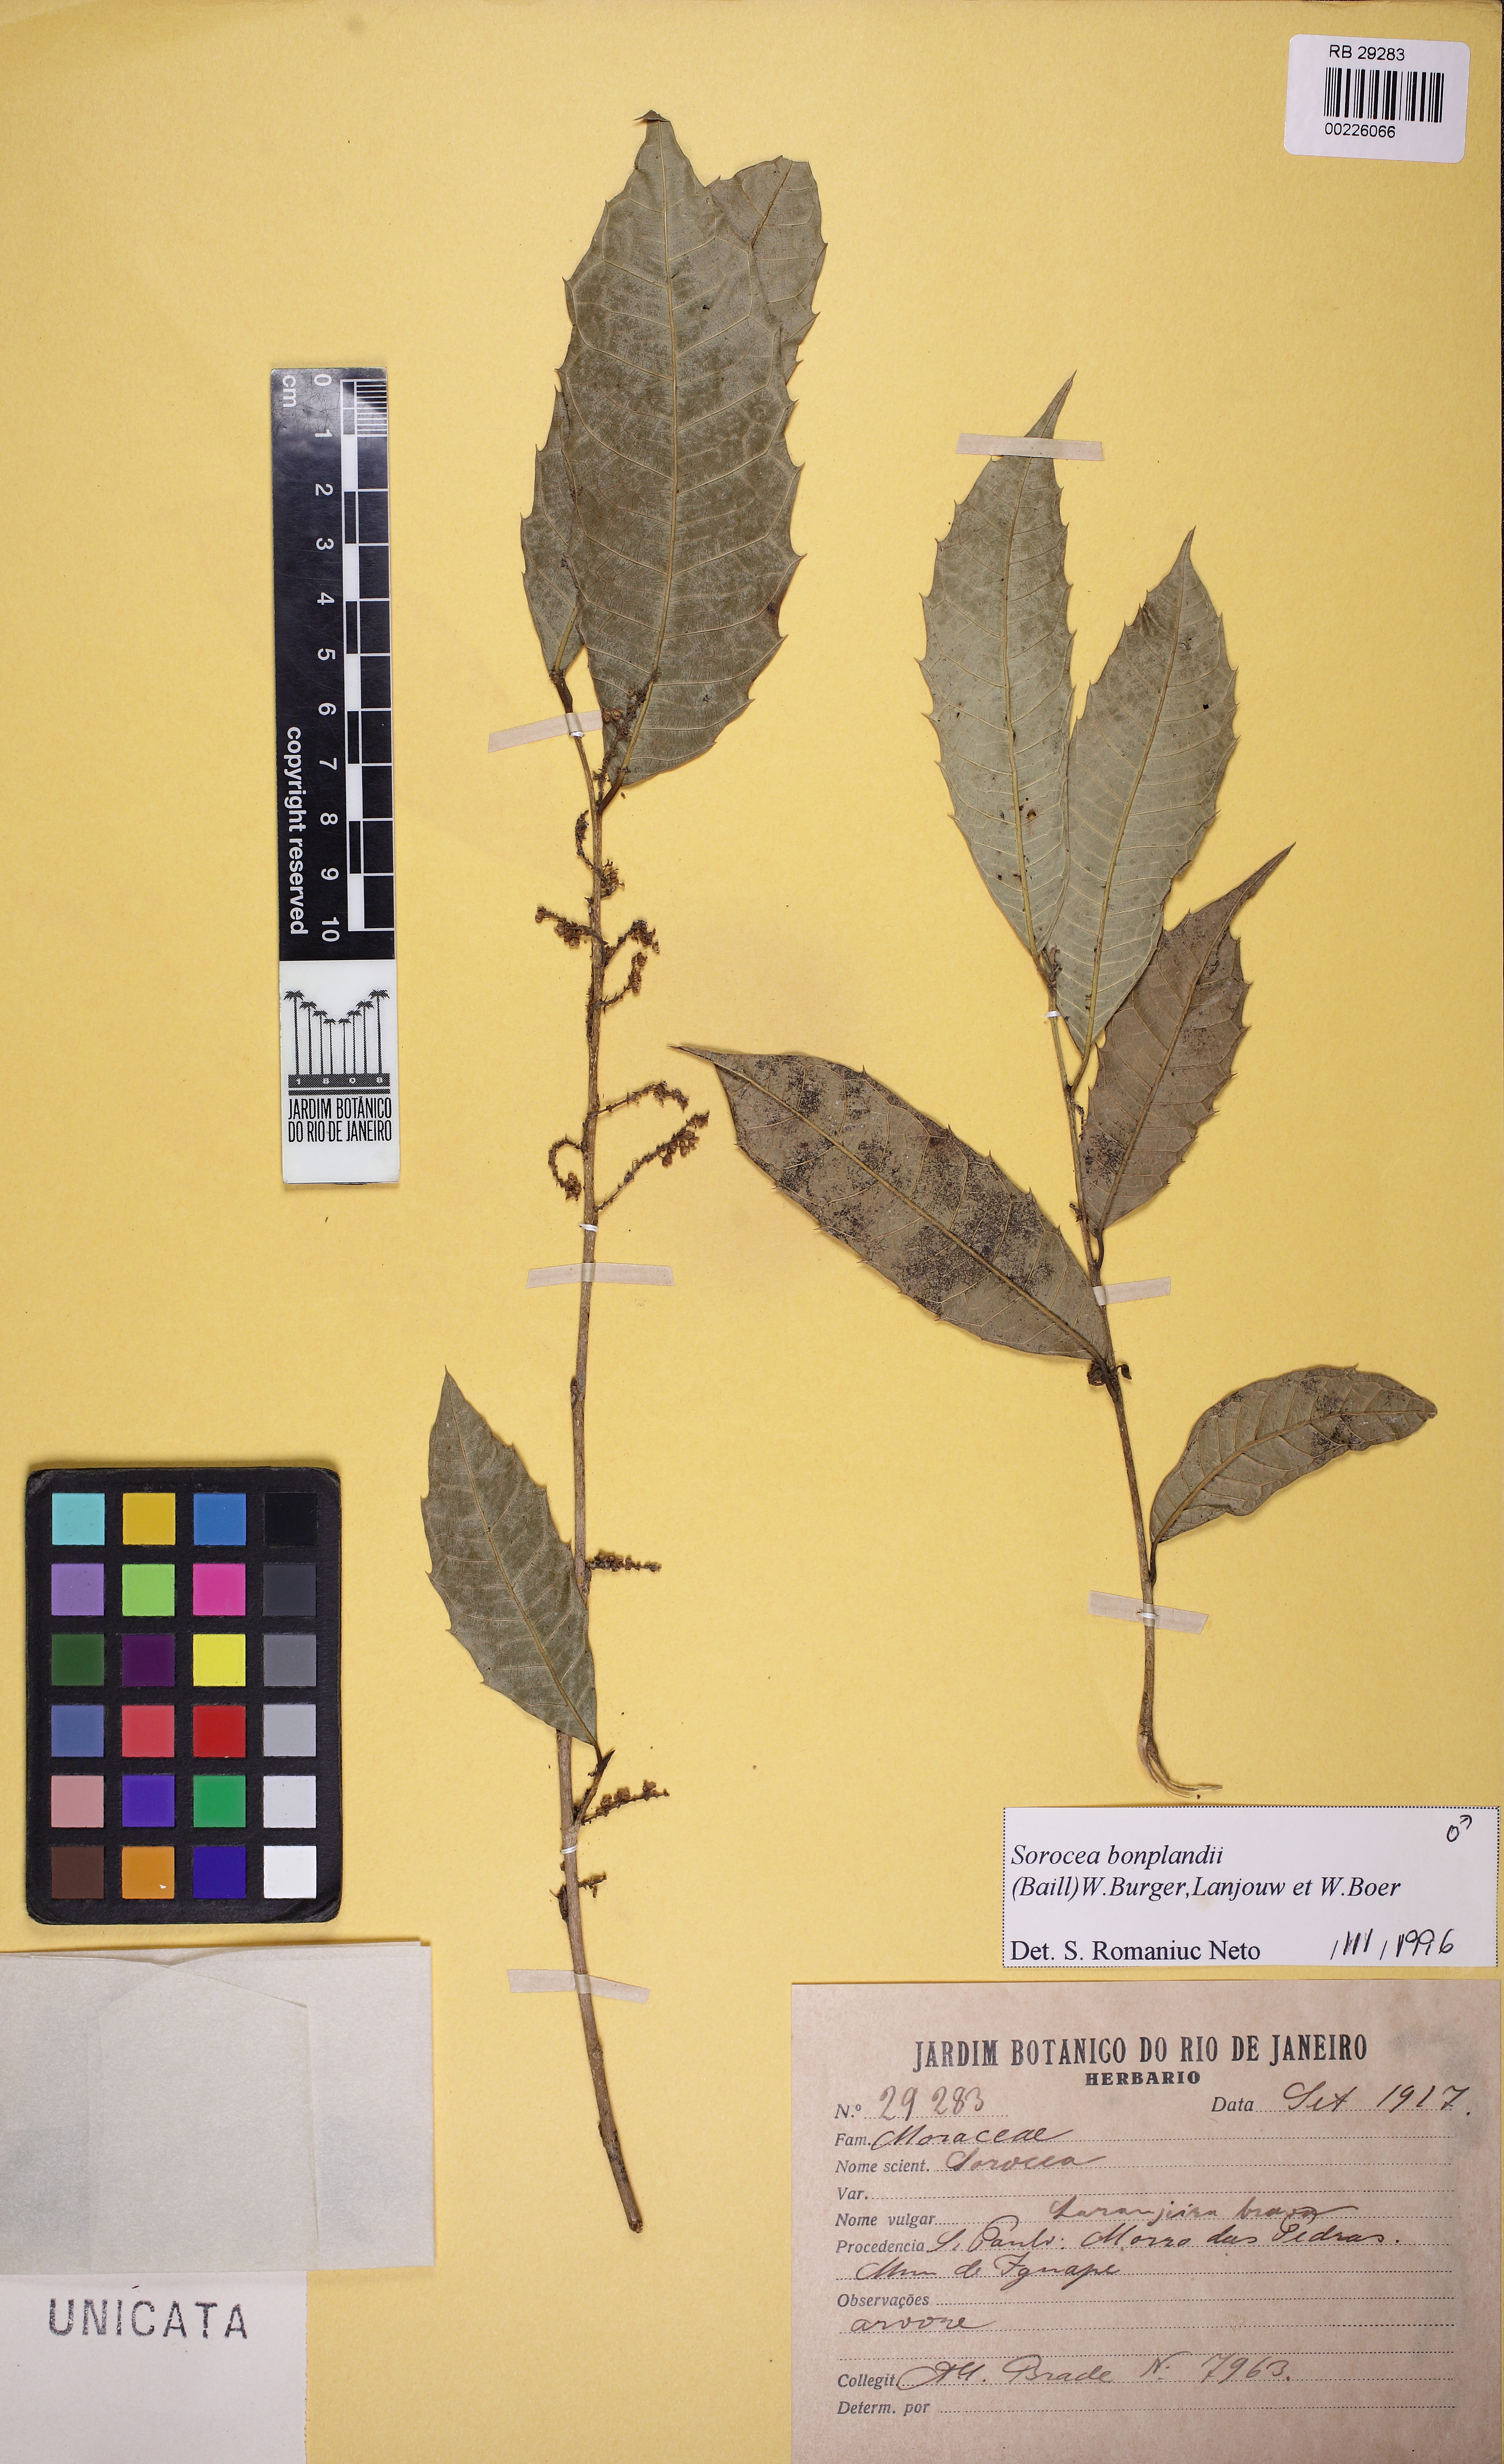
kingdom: Plantae
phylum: Tracheophyta
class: Magnoliopsida
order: Rosales
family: Moraceae
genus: Sorocea
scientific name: Sorocea bonplandii
